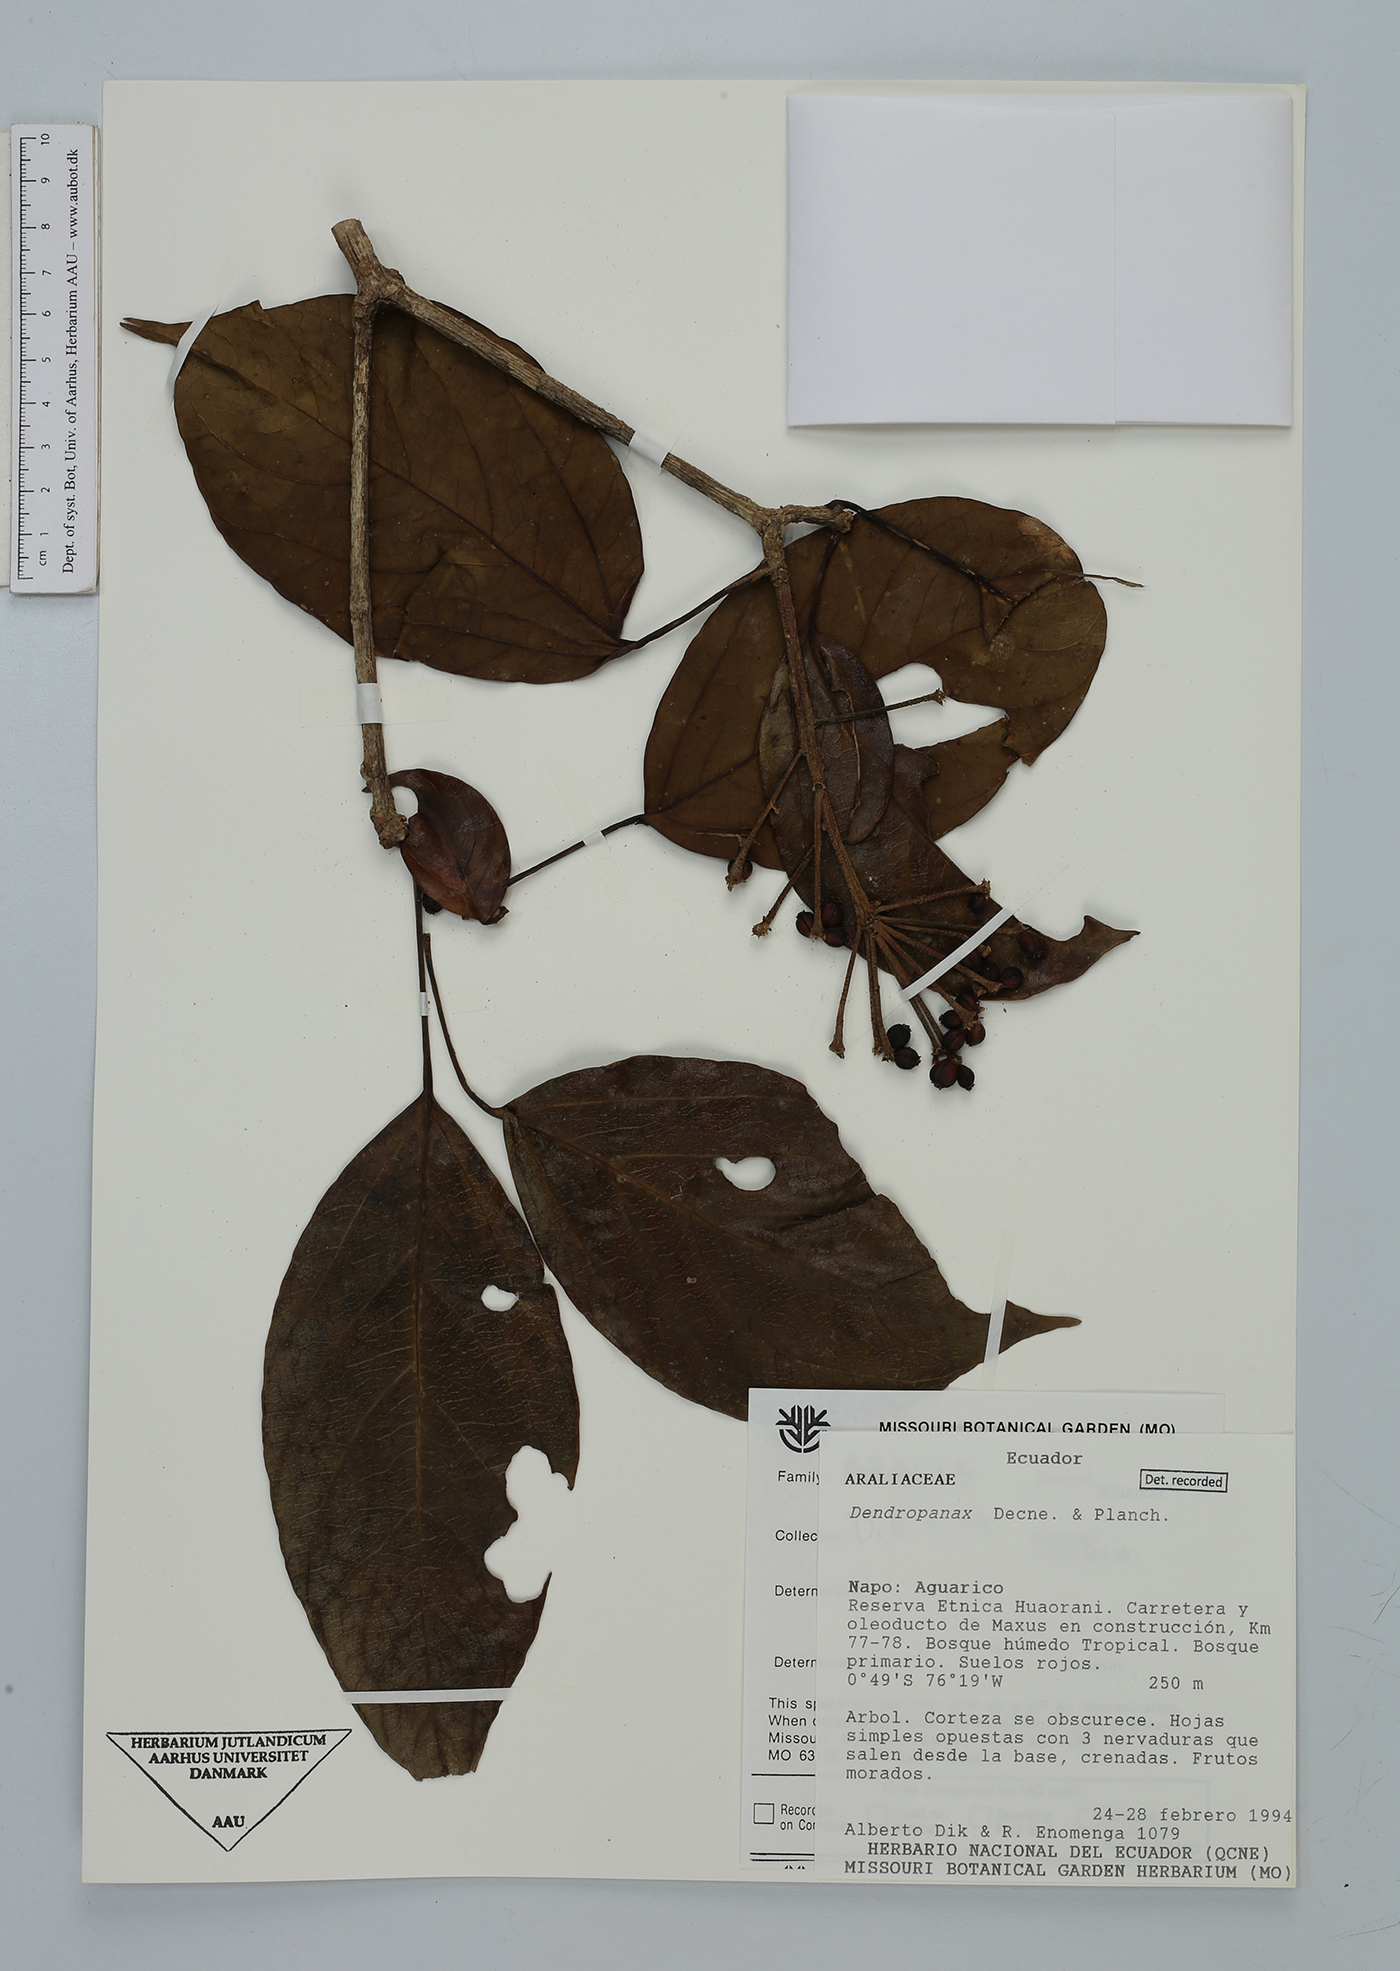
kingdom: Plantae
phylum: Tracheophyta
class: Magnoliopsida
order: Apiales
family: Araliaceae
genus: Dendropanax
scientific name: Dendropanax
